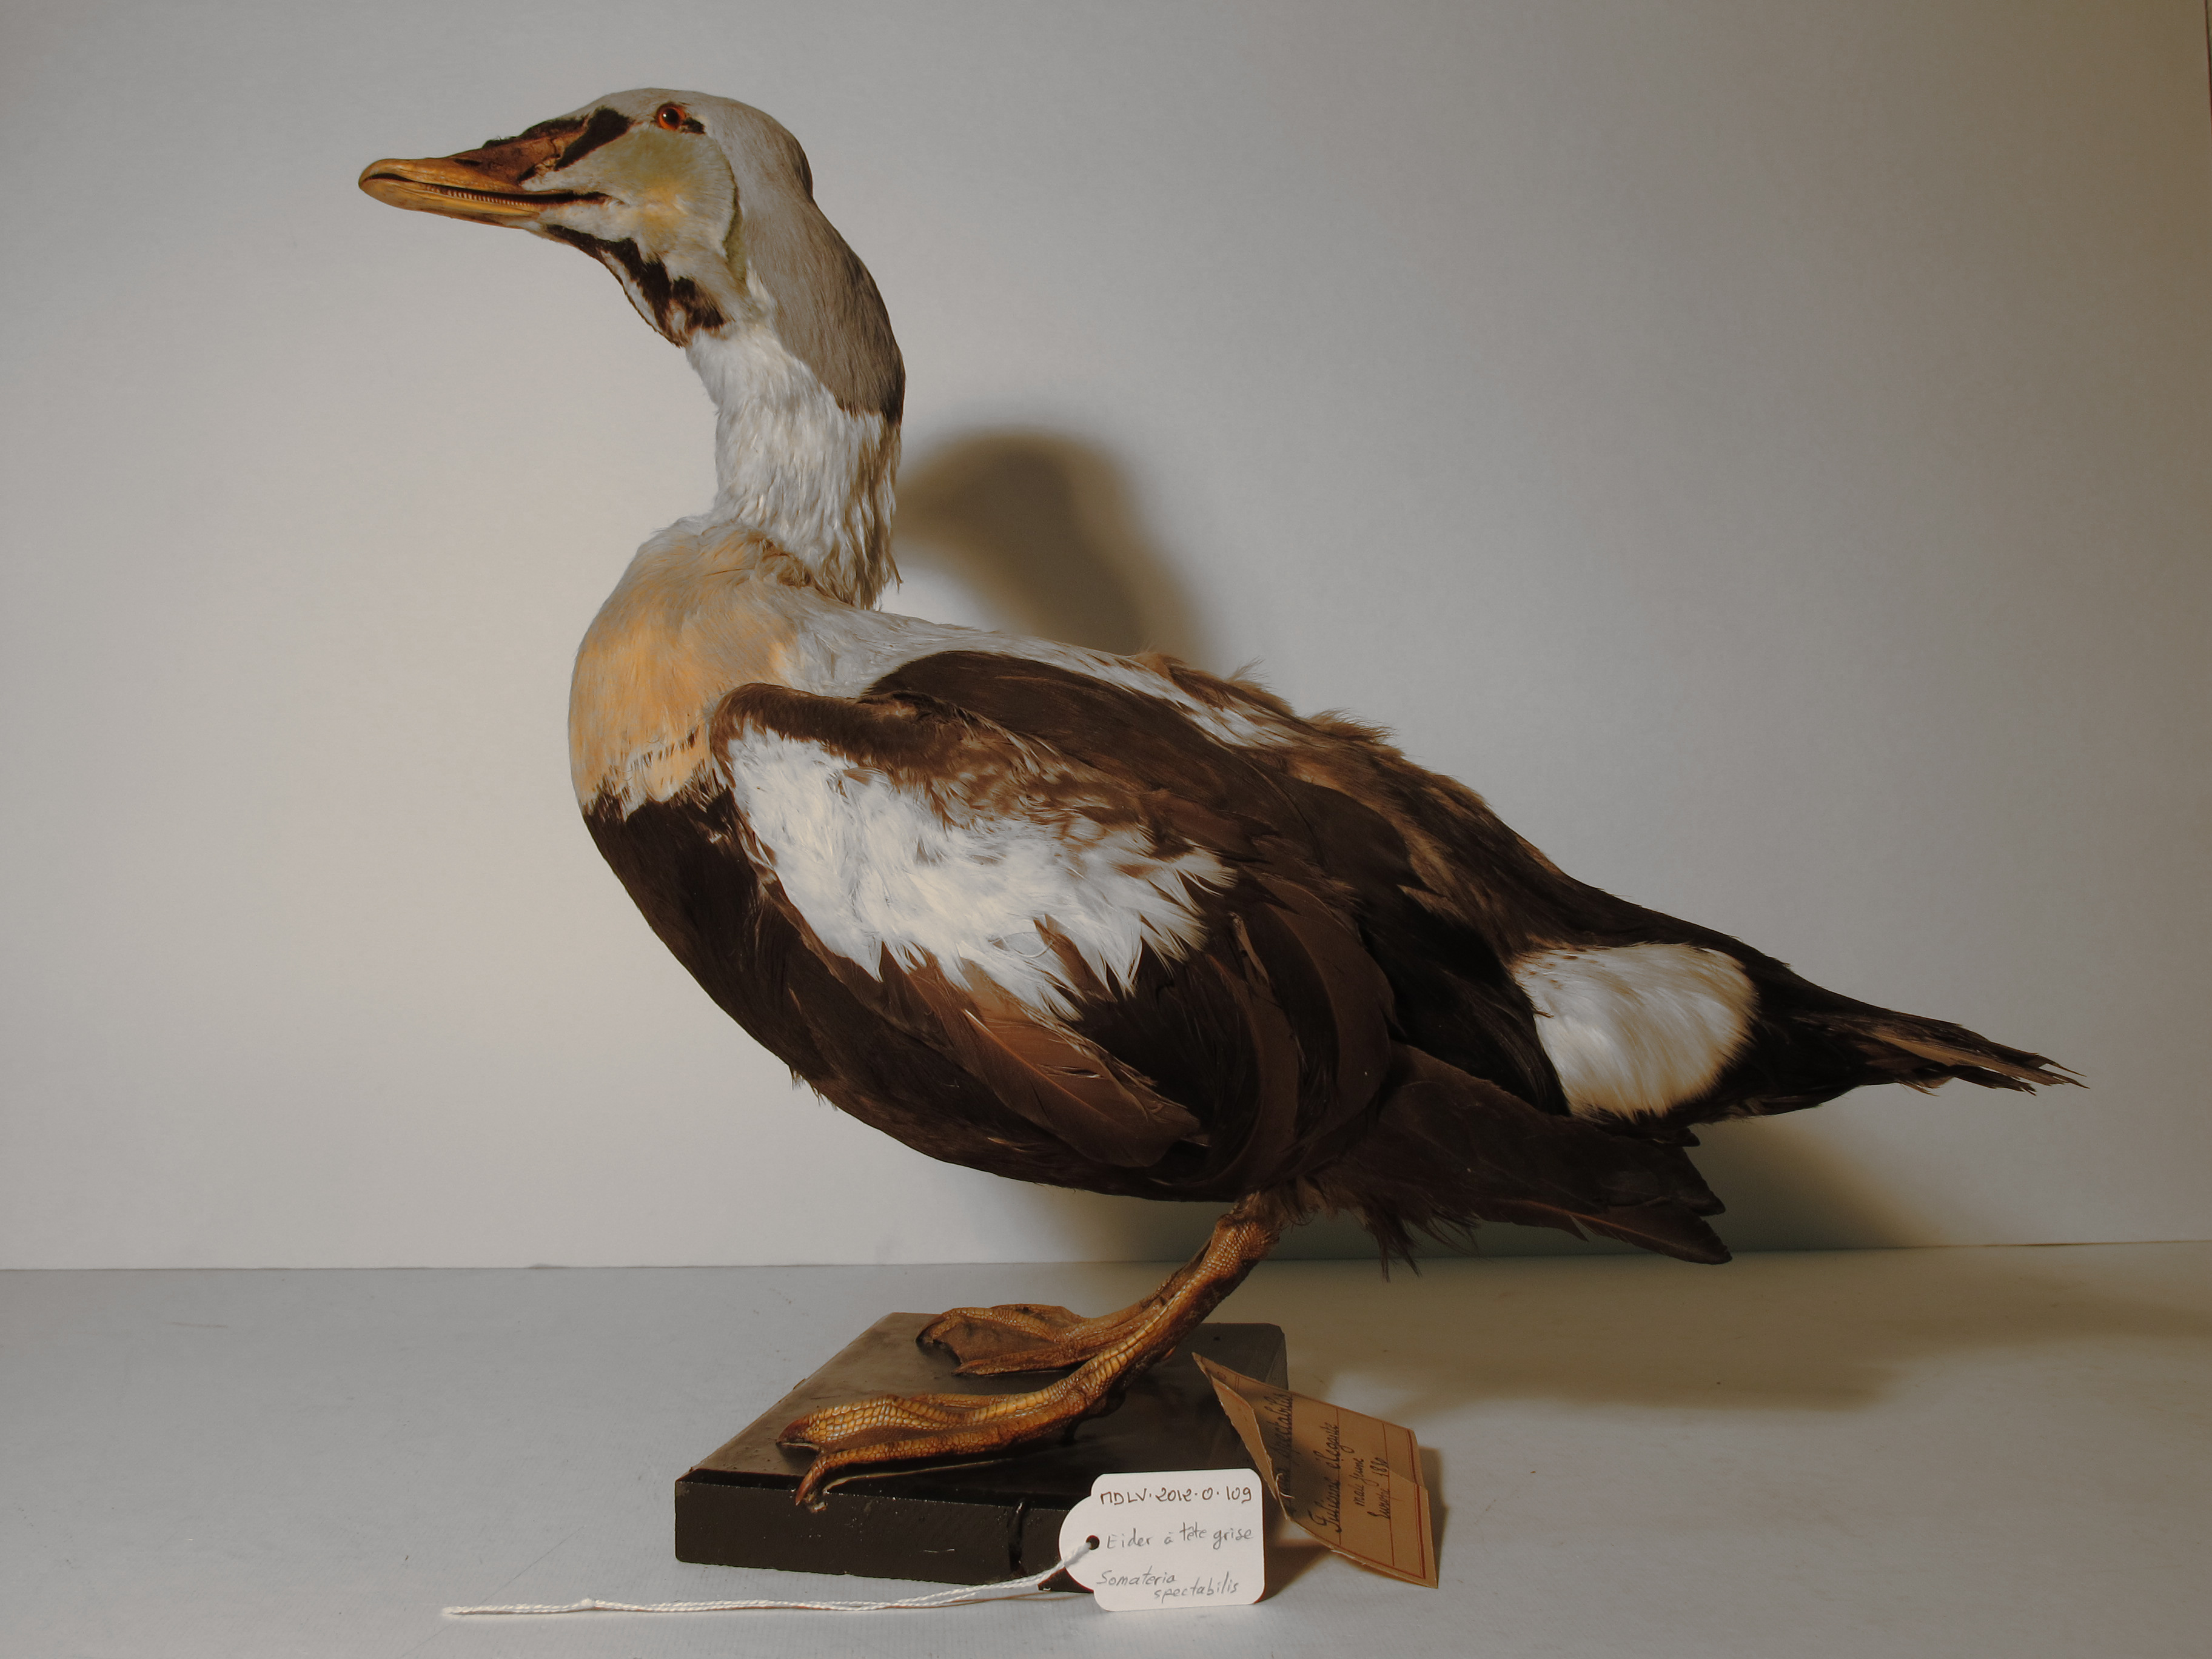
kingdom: Animalia
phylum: Chordata
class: Aves
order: Anseriformes
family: Anatidae
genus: Somateria
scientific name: Somateria spectabilis
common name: King Eider
